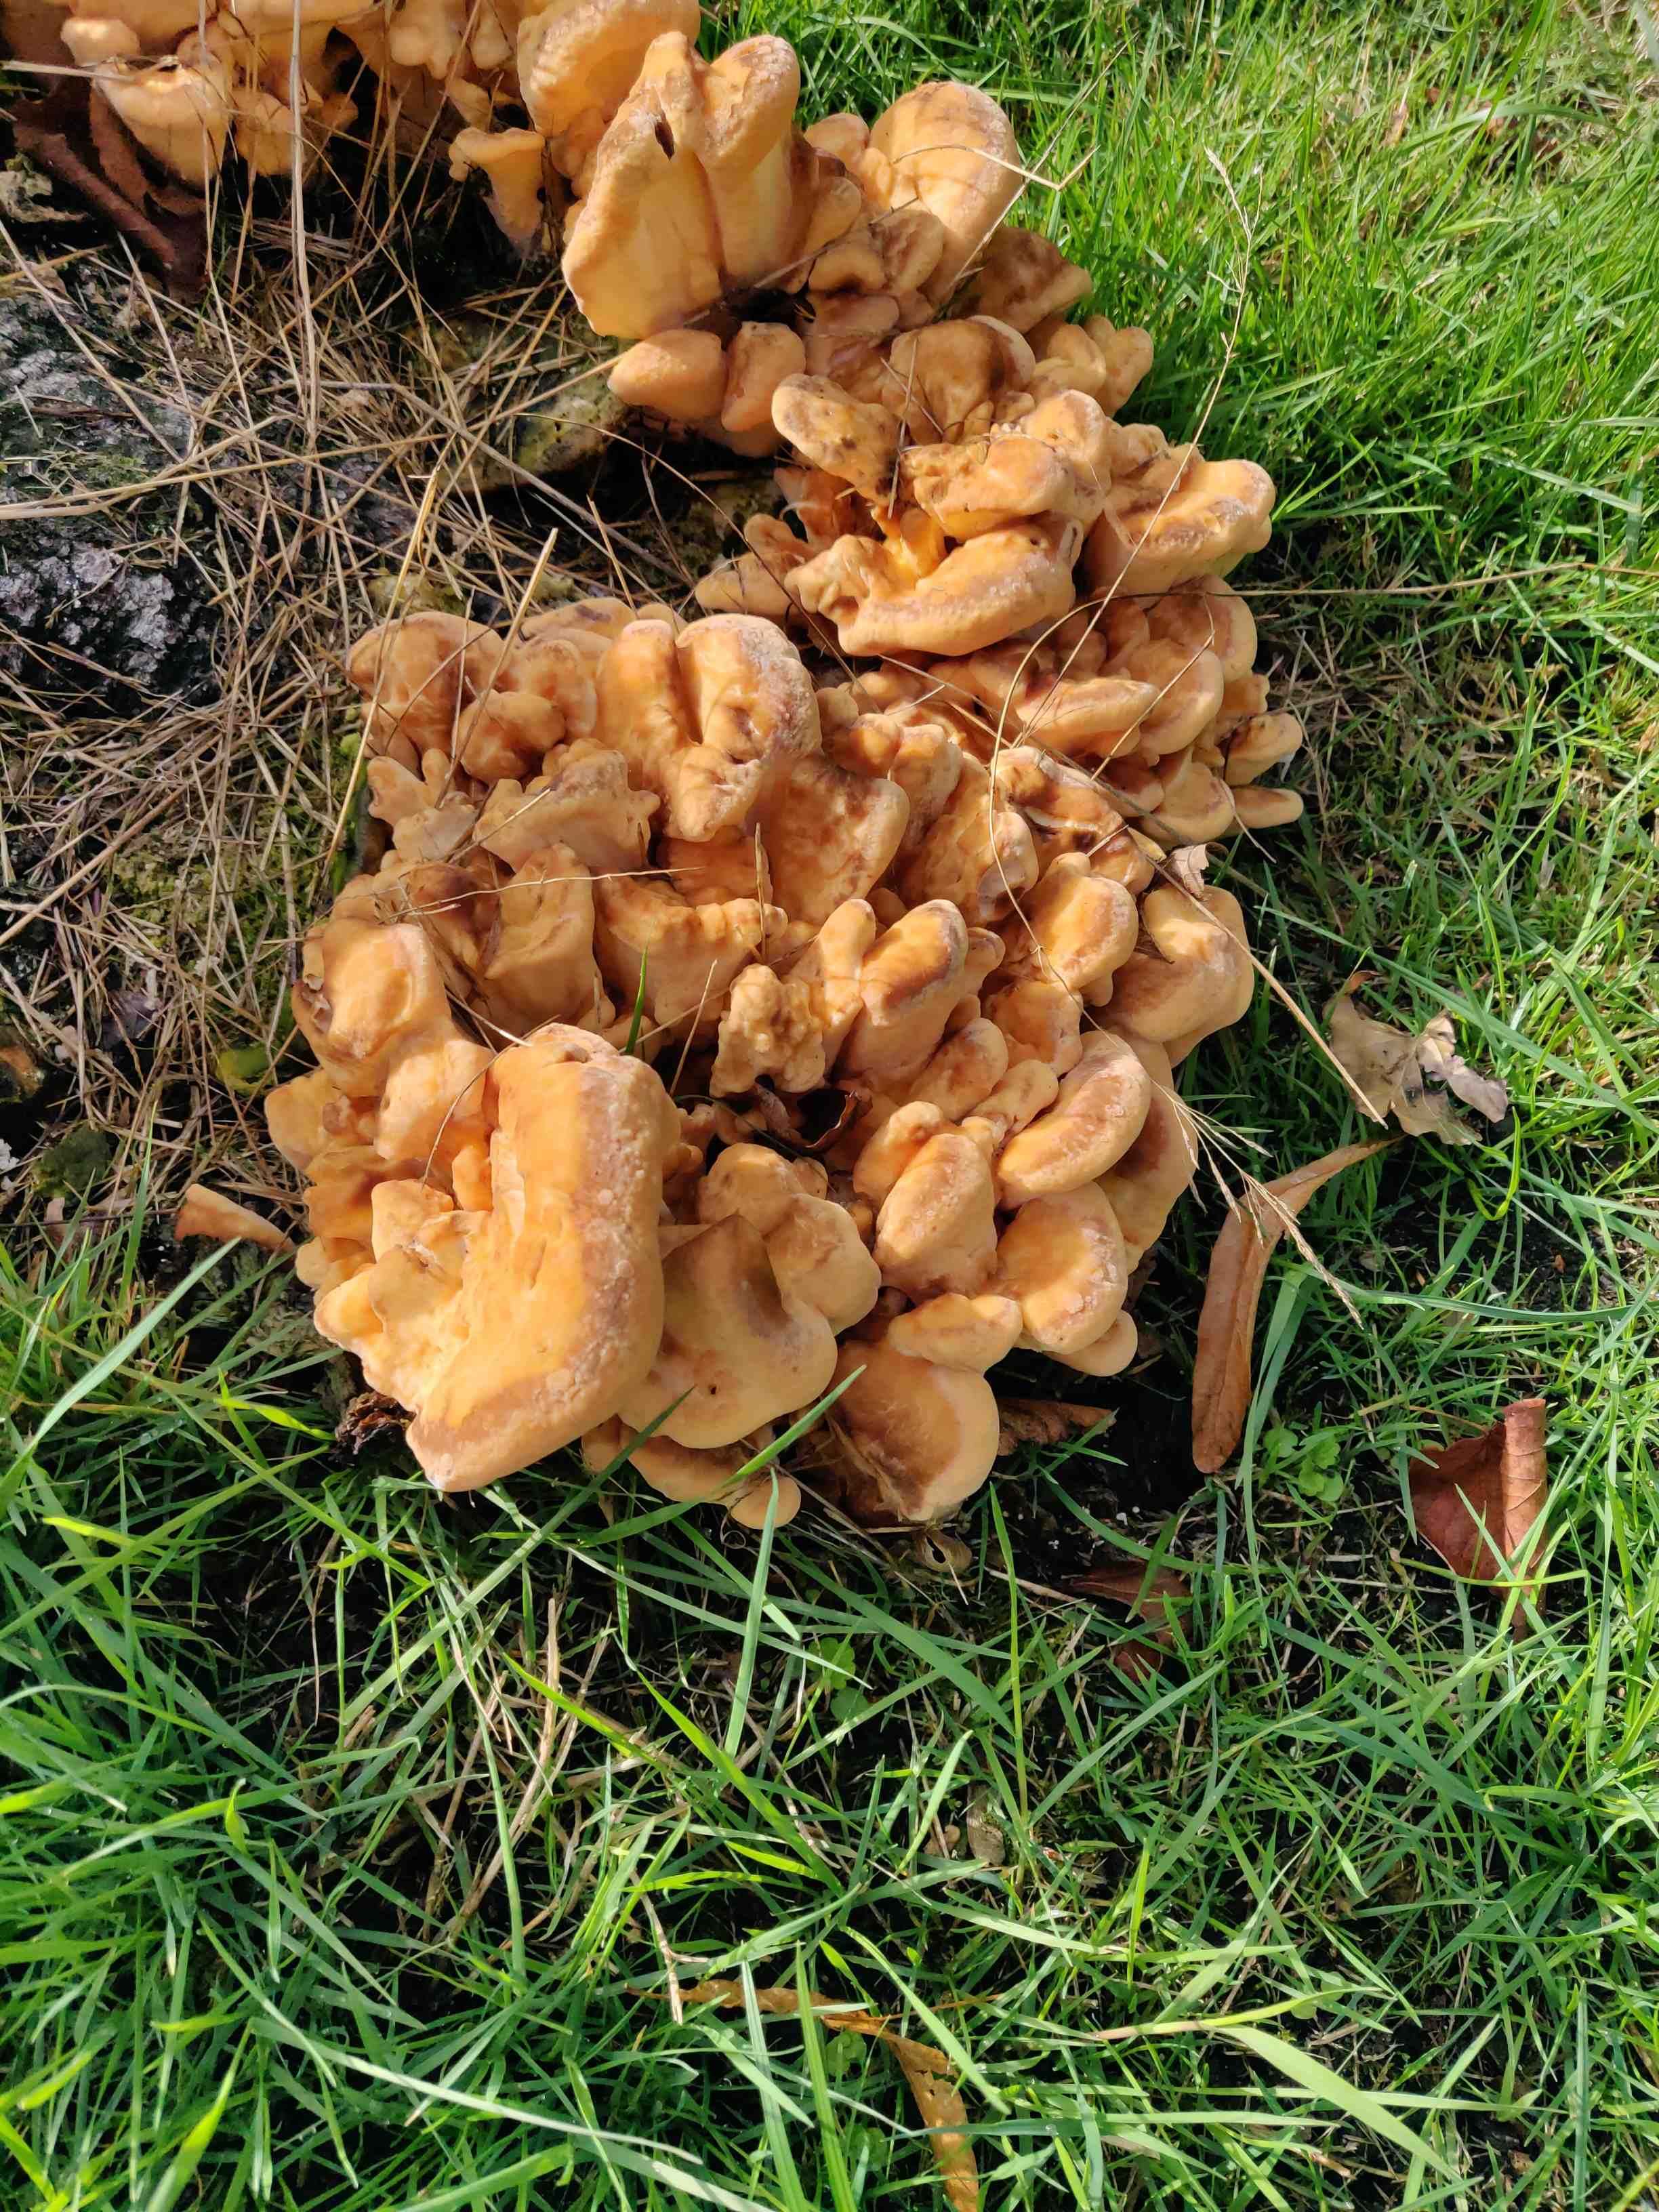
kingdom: Fungi
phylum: Basidiomycota
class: Agaricomycetes
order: Polyporales
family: Meripilaceae
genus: Meripilus
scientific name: Meripilus giganteus
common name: kæmpeporesvamp
